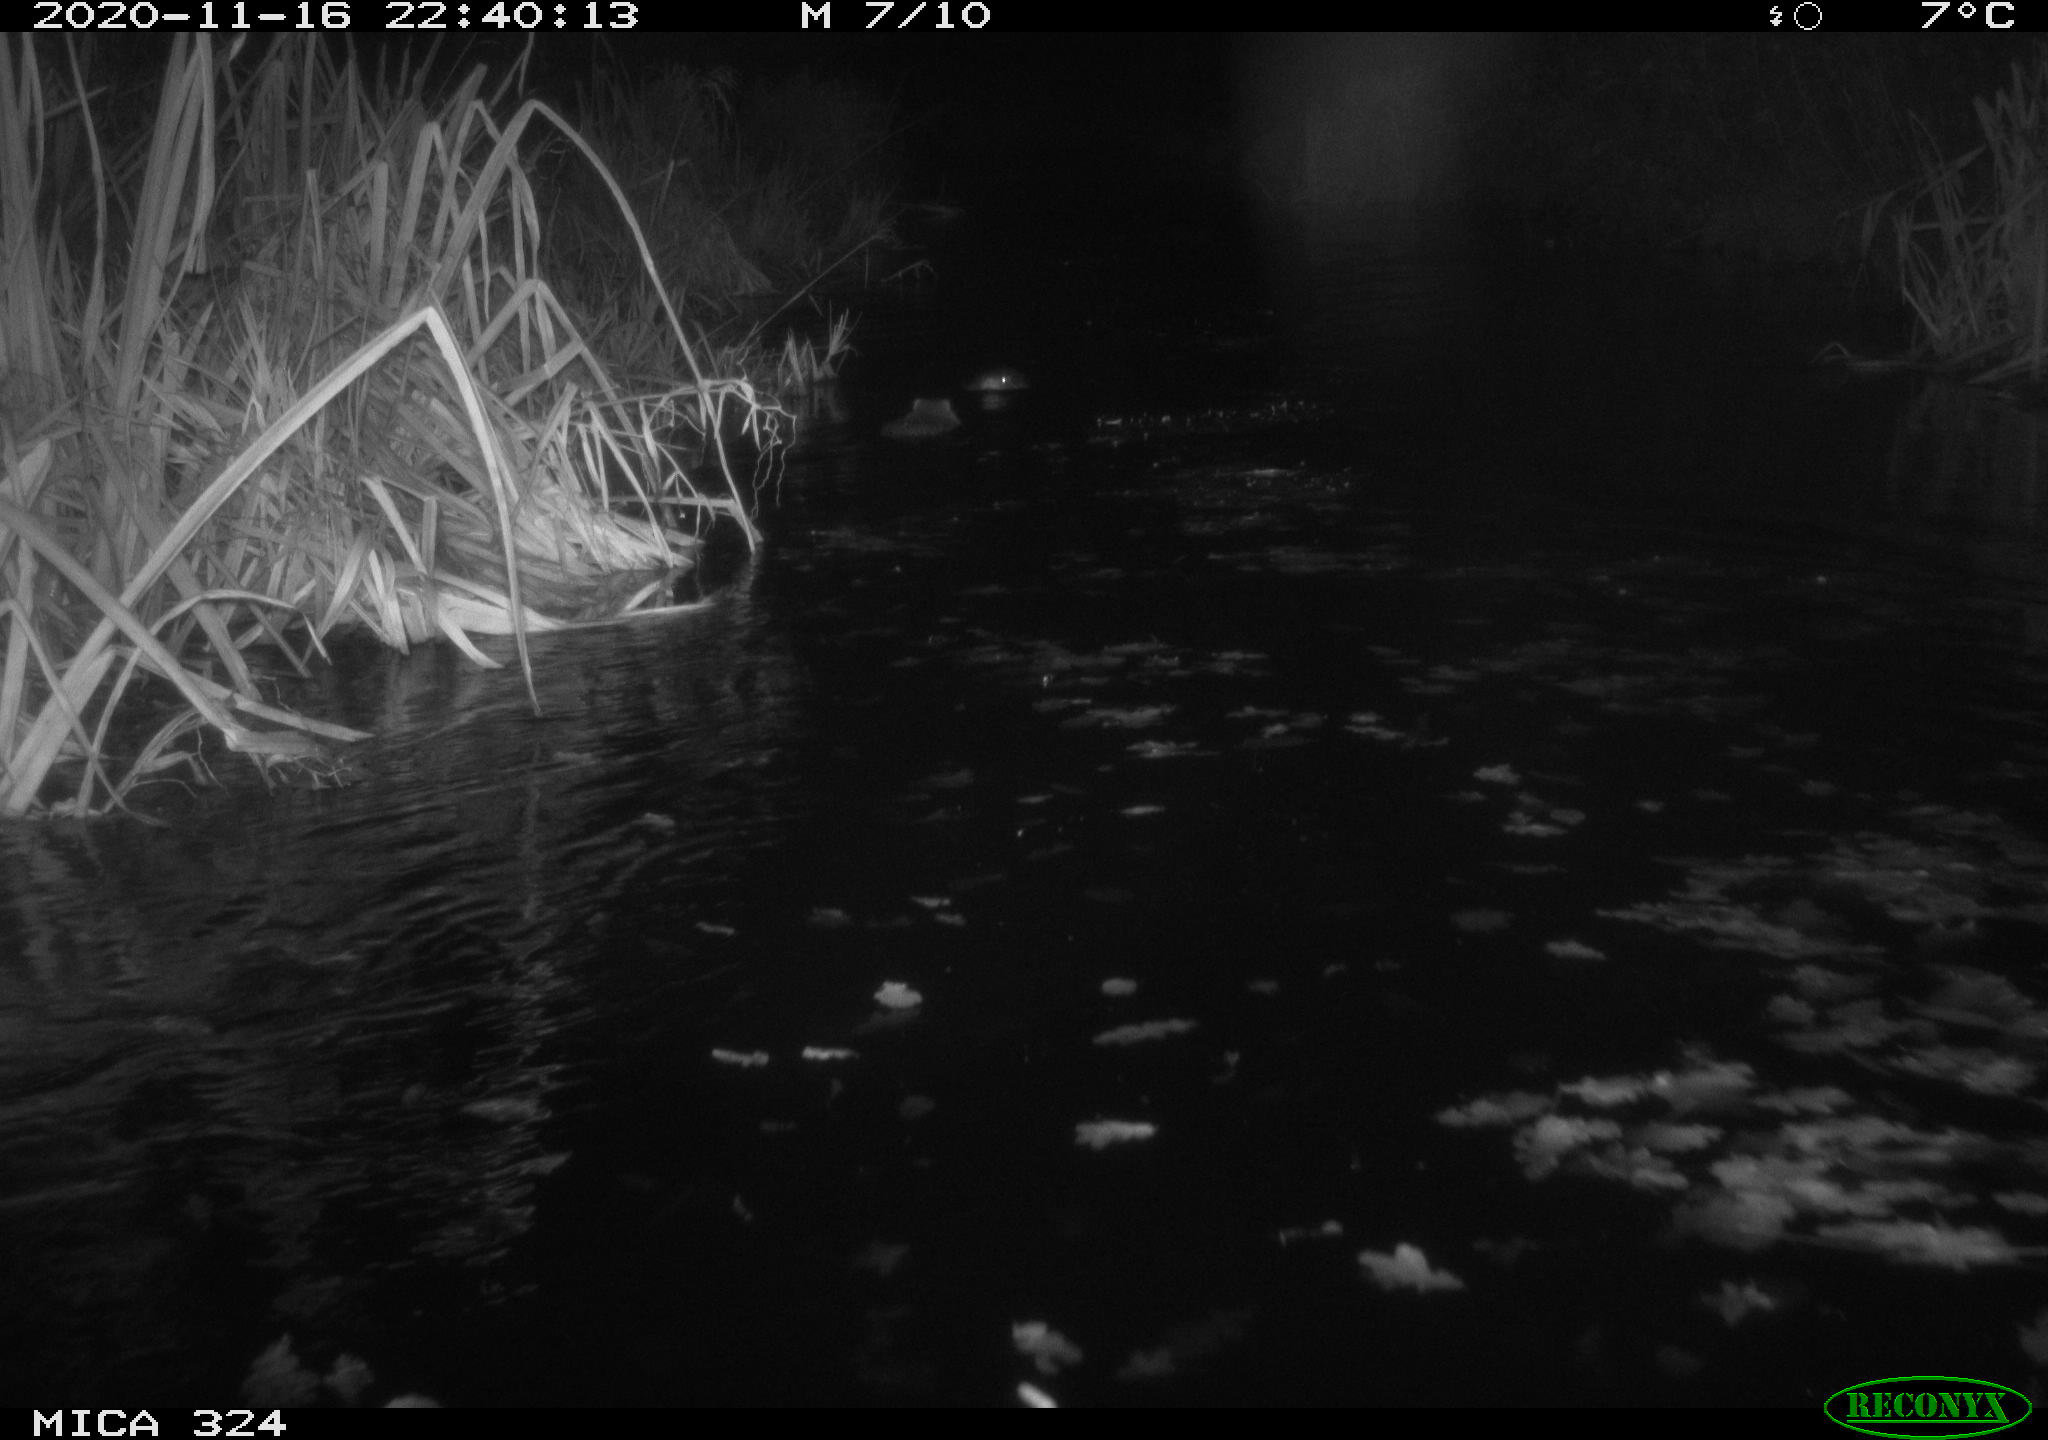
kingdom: Animalia
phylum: Chordata
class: Mammalia
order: Rodentia
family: Myocastoridae
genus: Myocastor
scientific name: Myocastor coypus
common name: Coypu
